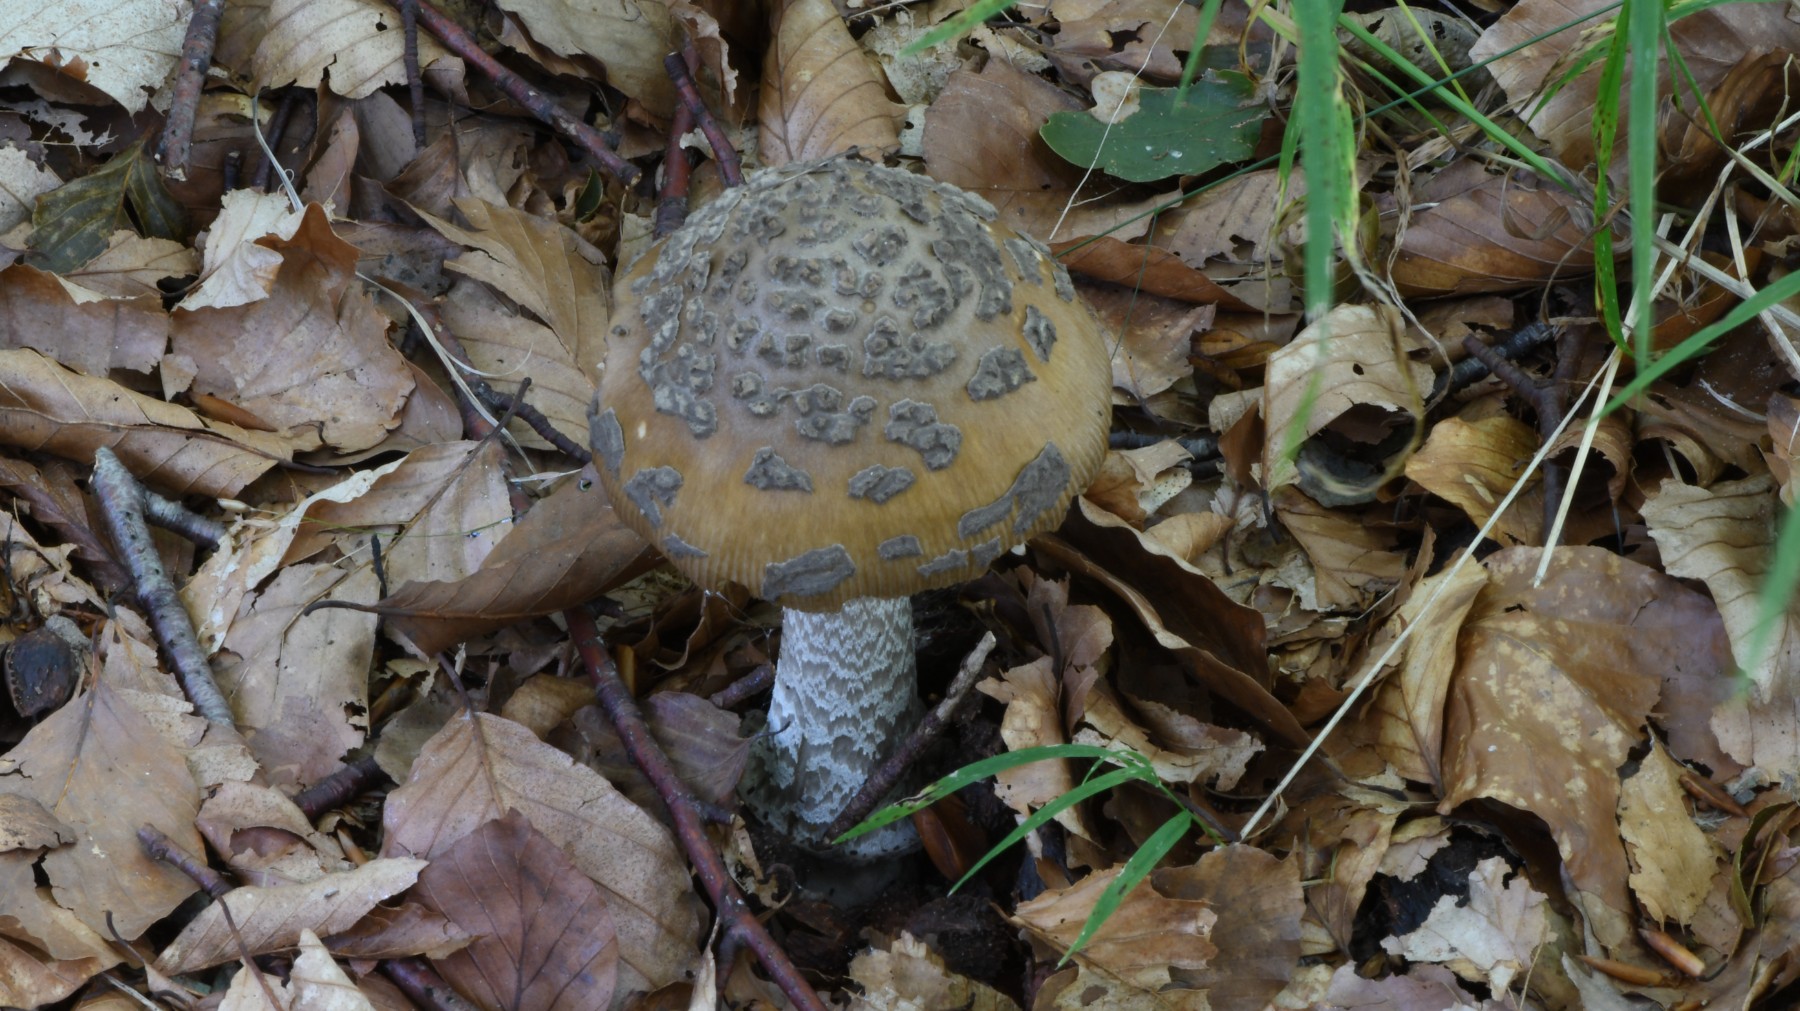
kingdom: Fungi
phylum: Basidiomycota
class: Agaricomycetes
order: Agaricales
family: Amanitaceae
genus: Amanita
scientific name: Amanita ceciliae
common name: stor kam-fluesvamp
